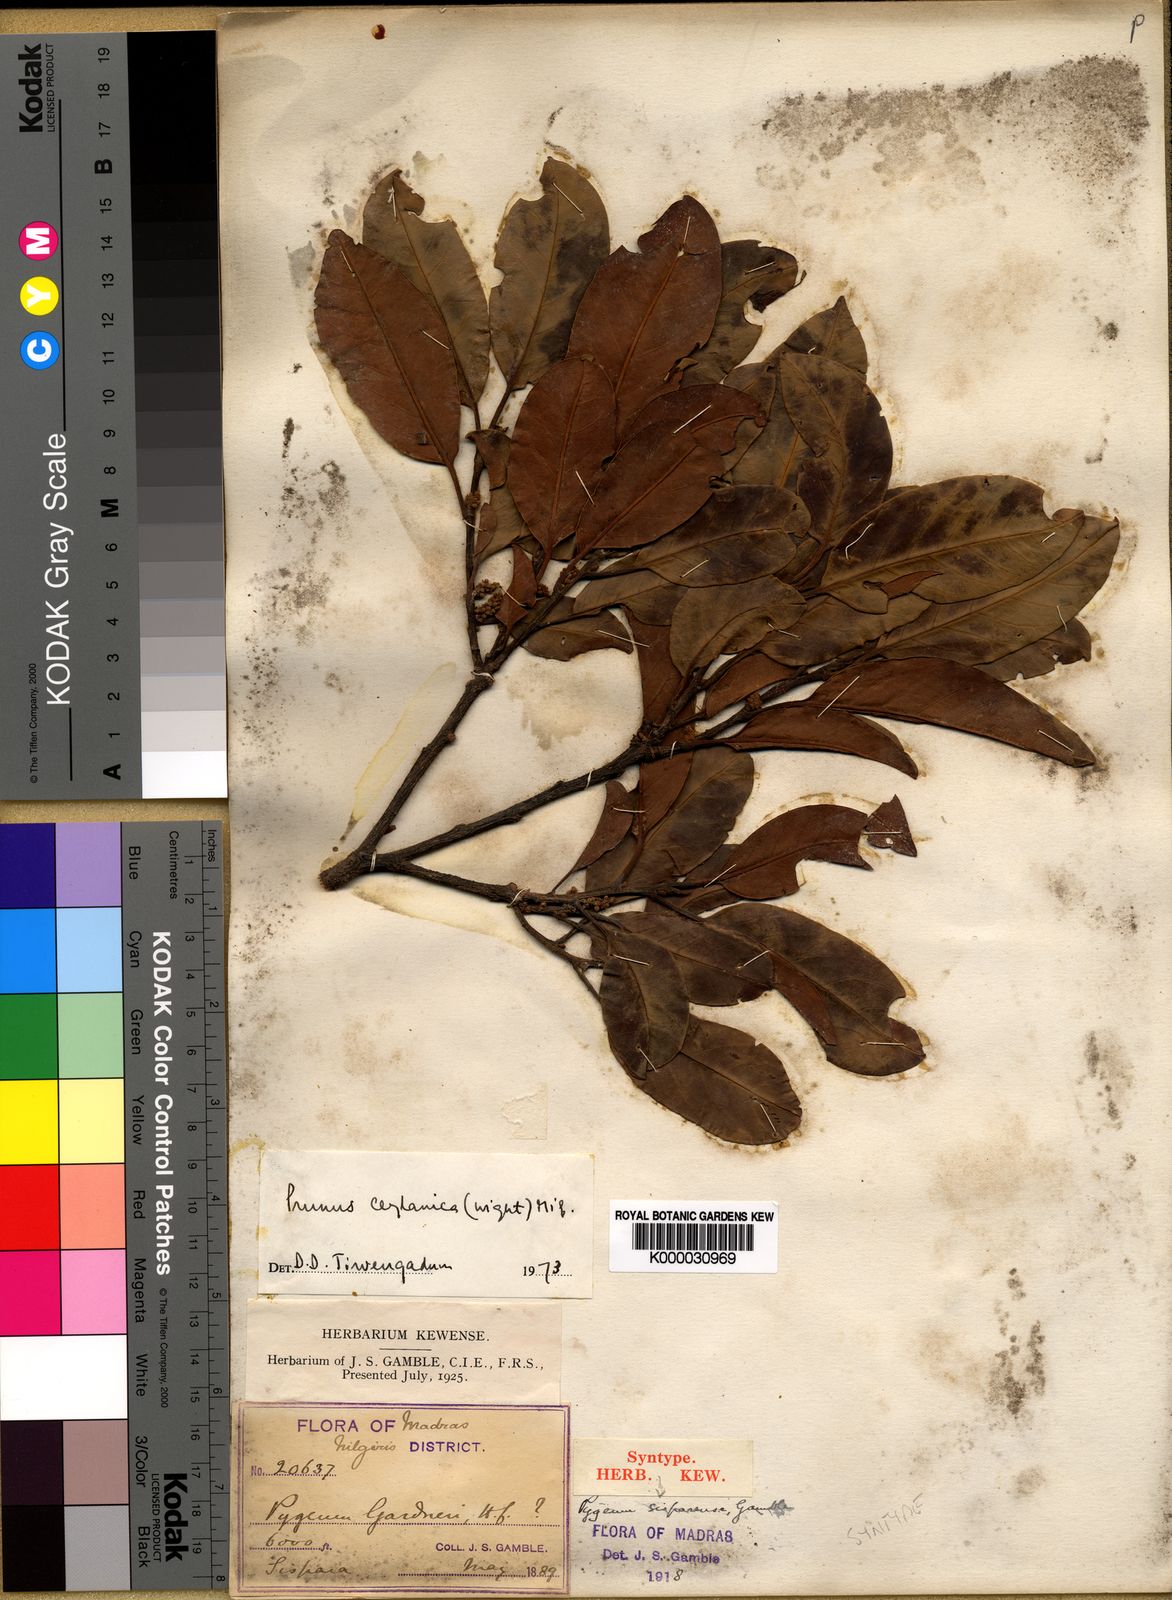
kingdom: Plantae
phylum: Tracheophyta
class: Magnoliopsida
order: Rosales
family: Rosaceae
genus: Prunus
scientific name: Prunus ceylanica
